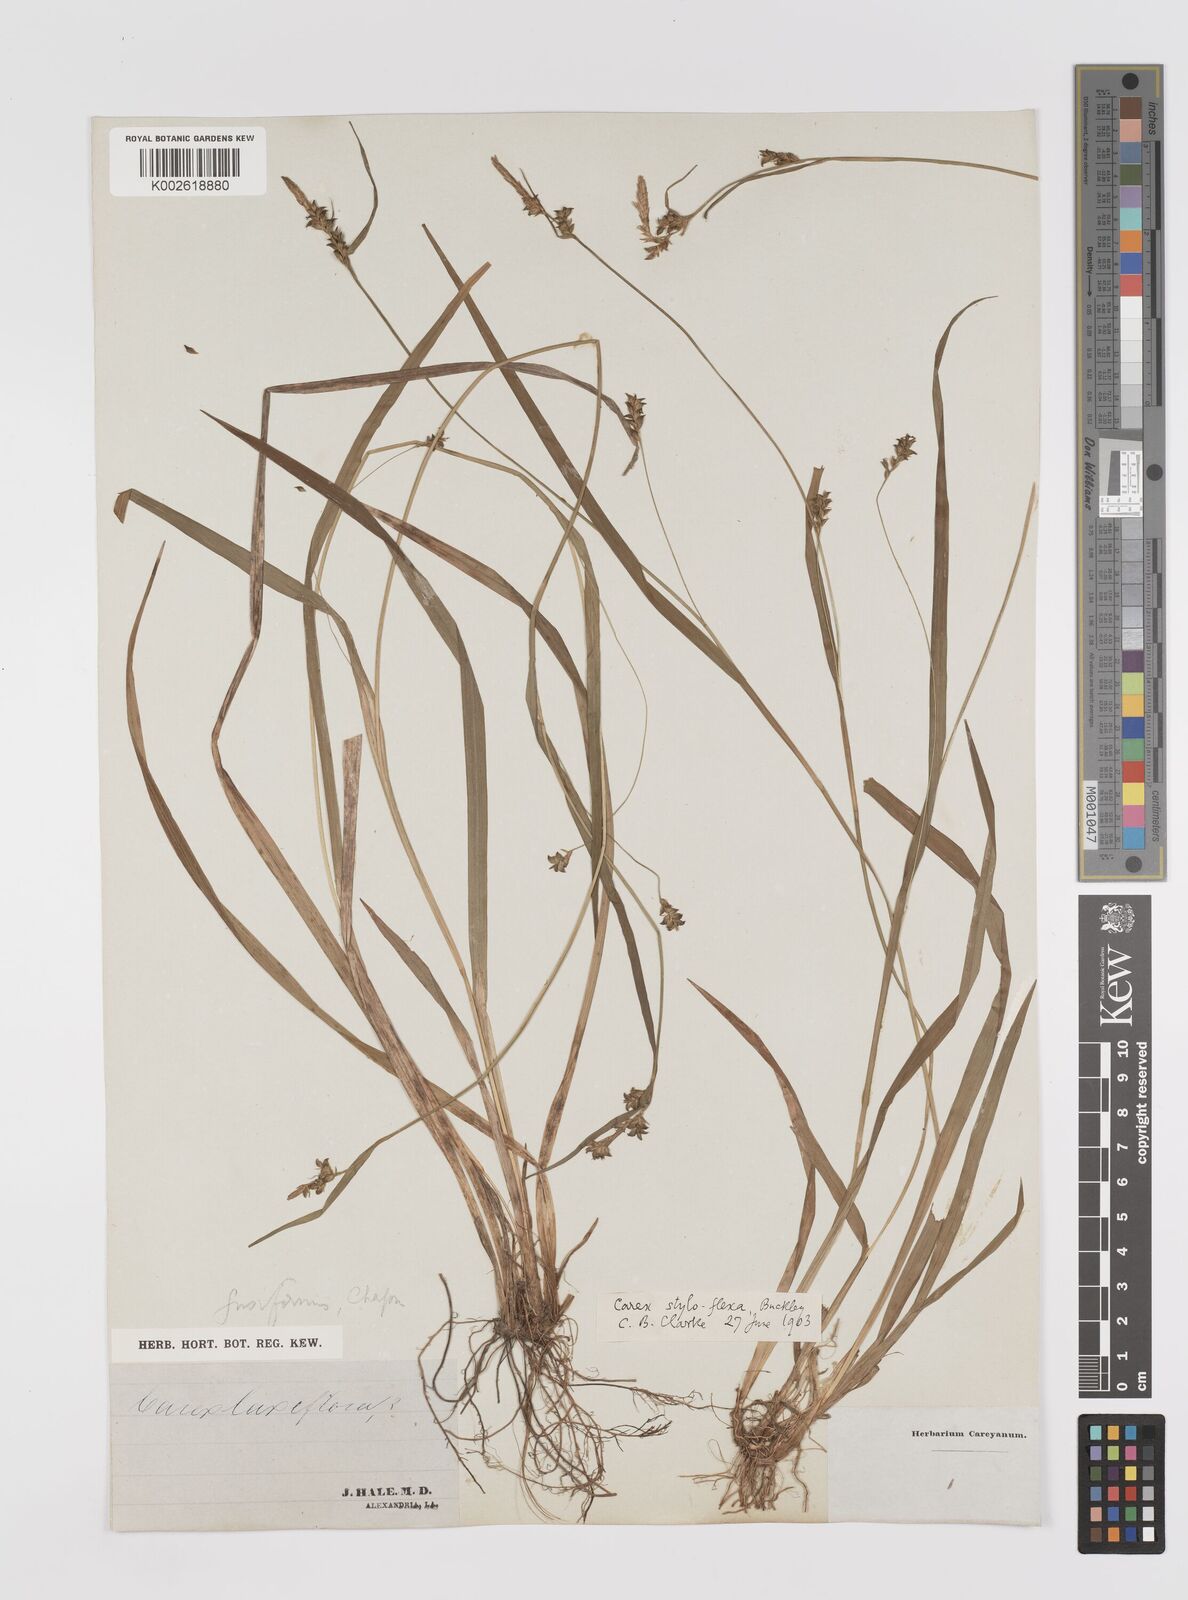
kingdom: Plantae
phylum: Tracheophyta
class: Liliopsida
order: Poales
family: Cyperaceae
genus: Carex
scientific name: Carex styloflexa
